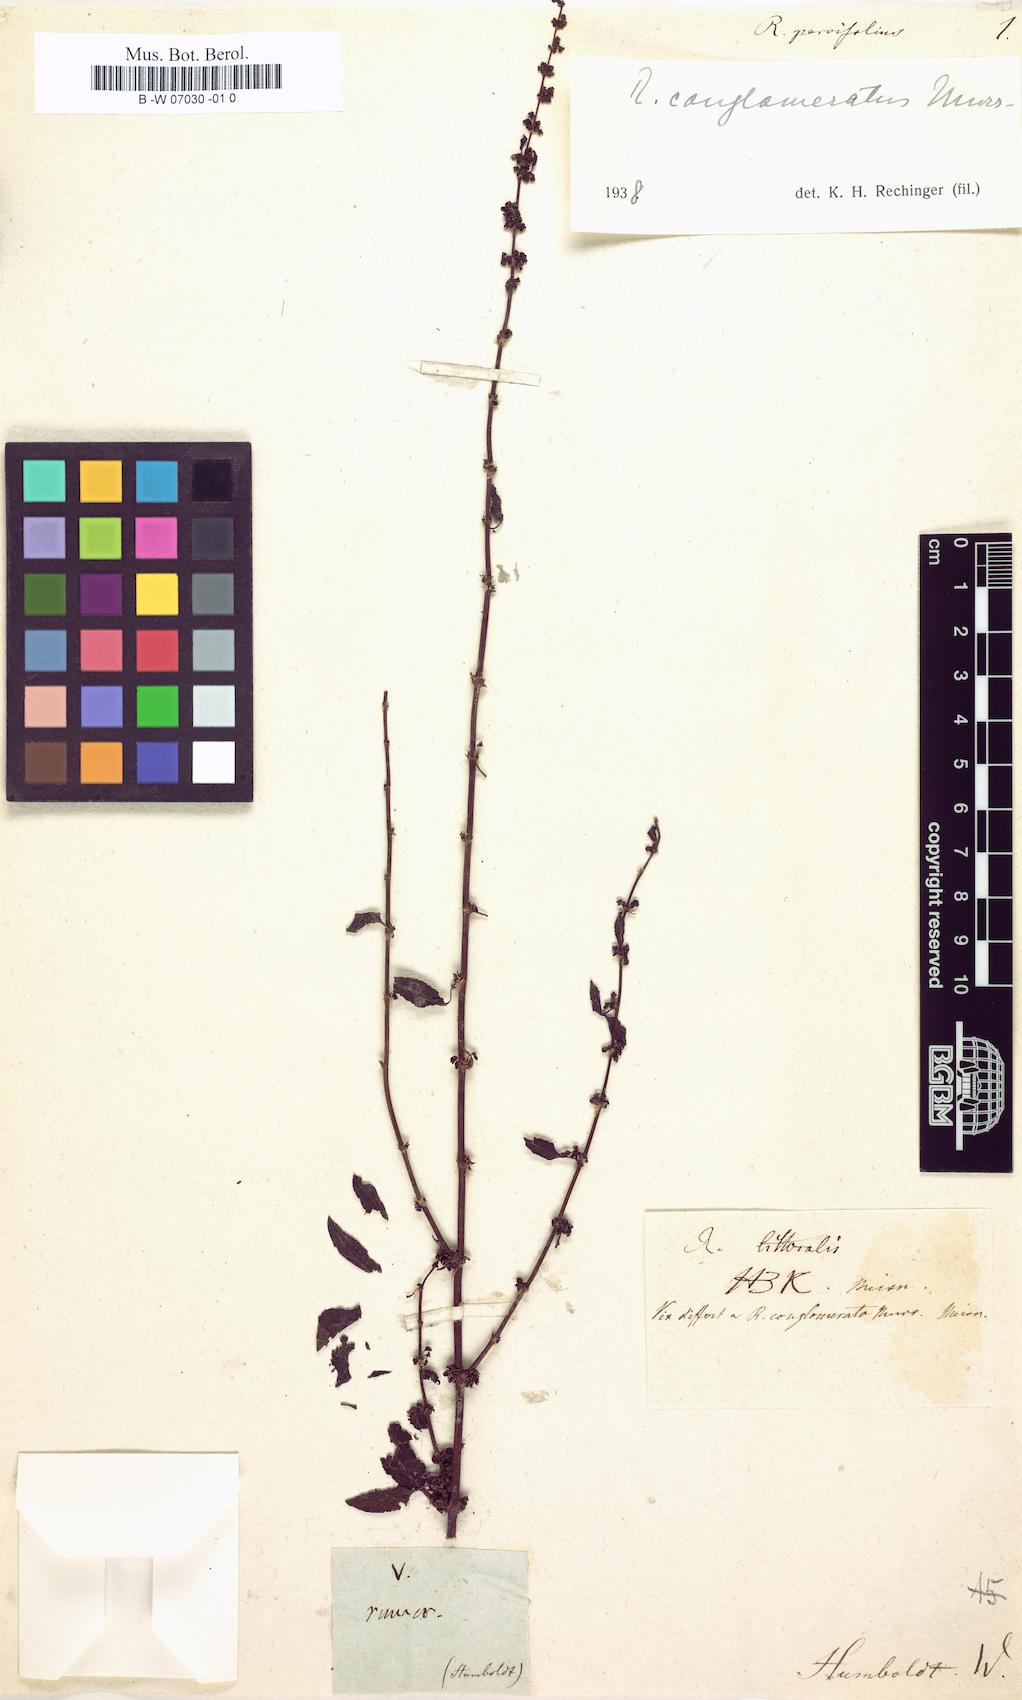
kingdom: Plantae
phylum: Tracheophyta
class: Magnoliopsida
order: Caryophyllales
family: Polygonaceae
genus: Rumex
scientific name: Rumex conglomeratus
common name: Clustered dock
